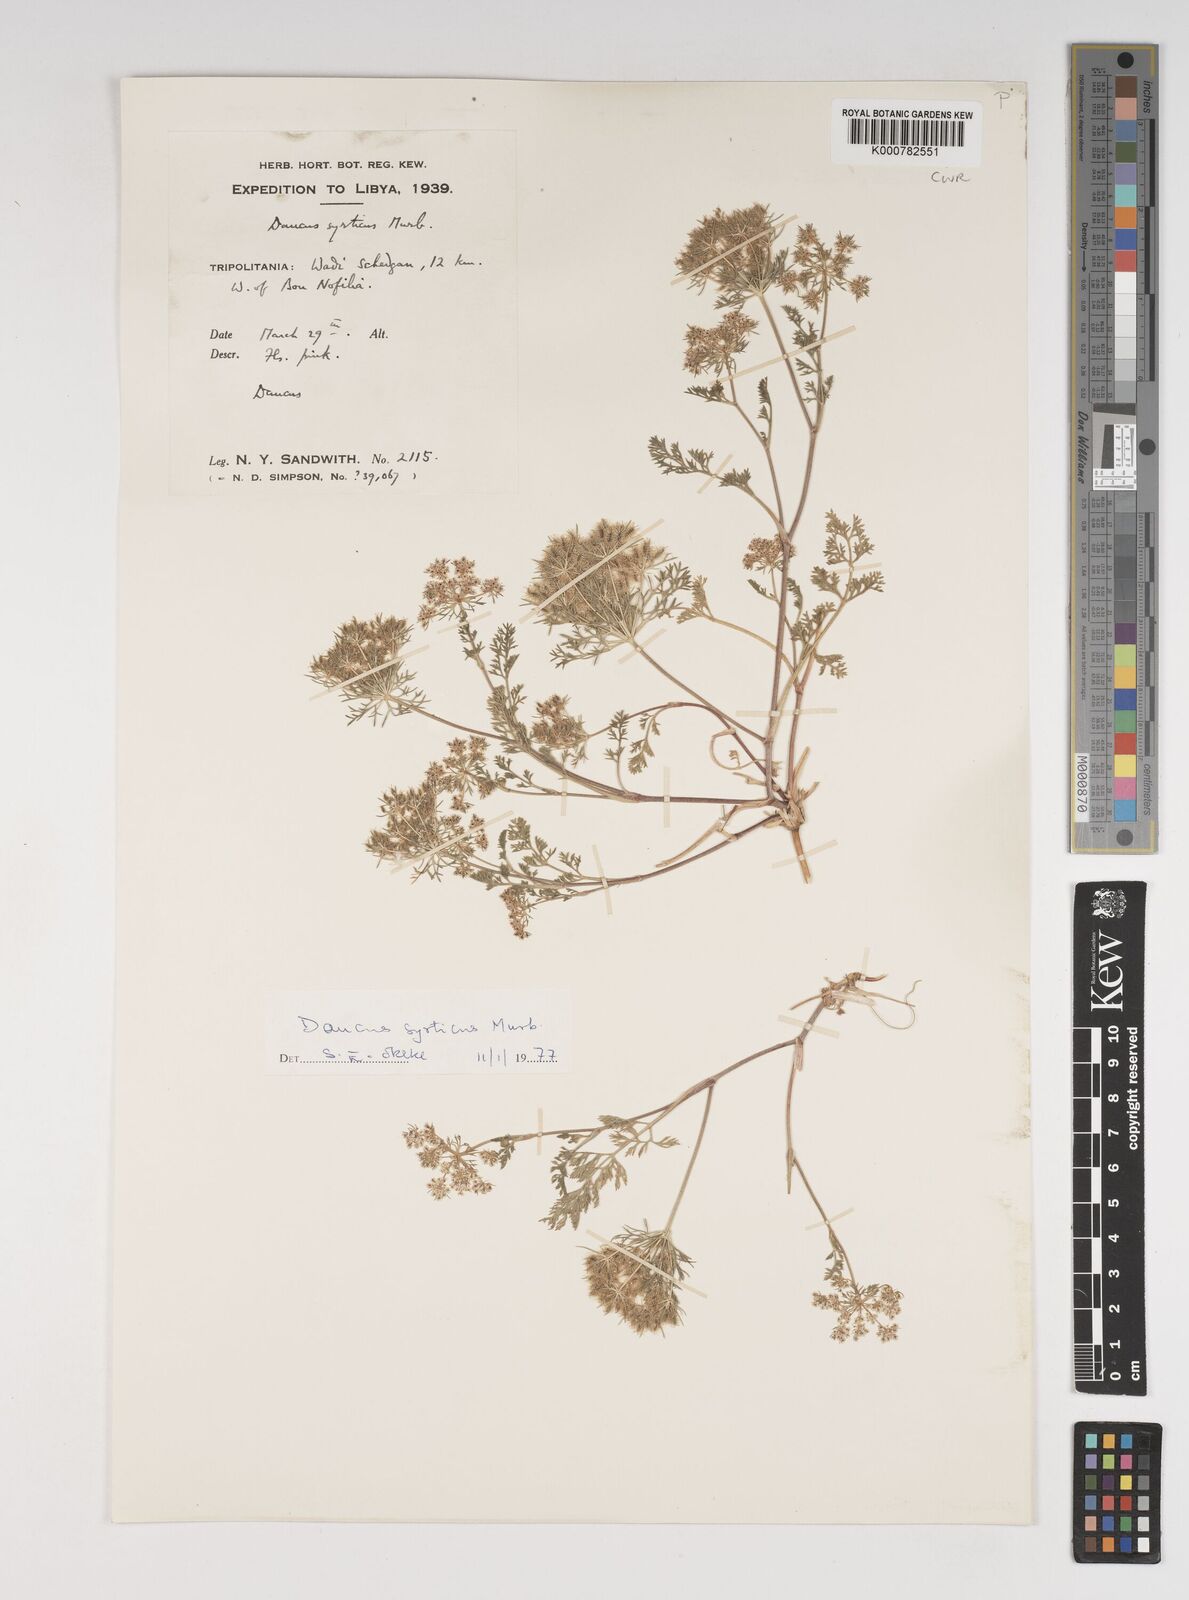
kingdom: Plantae
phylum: Tracheophyta
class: Magnoliopsida
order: Apiales
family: Apiaceae
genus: Daucus
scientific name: Daucus syrticus
